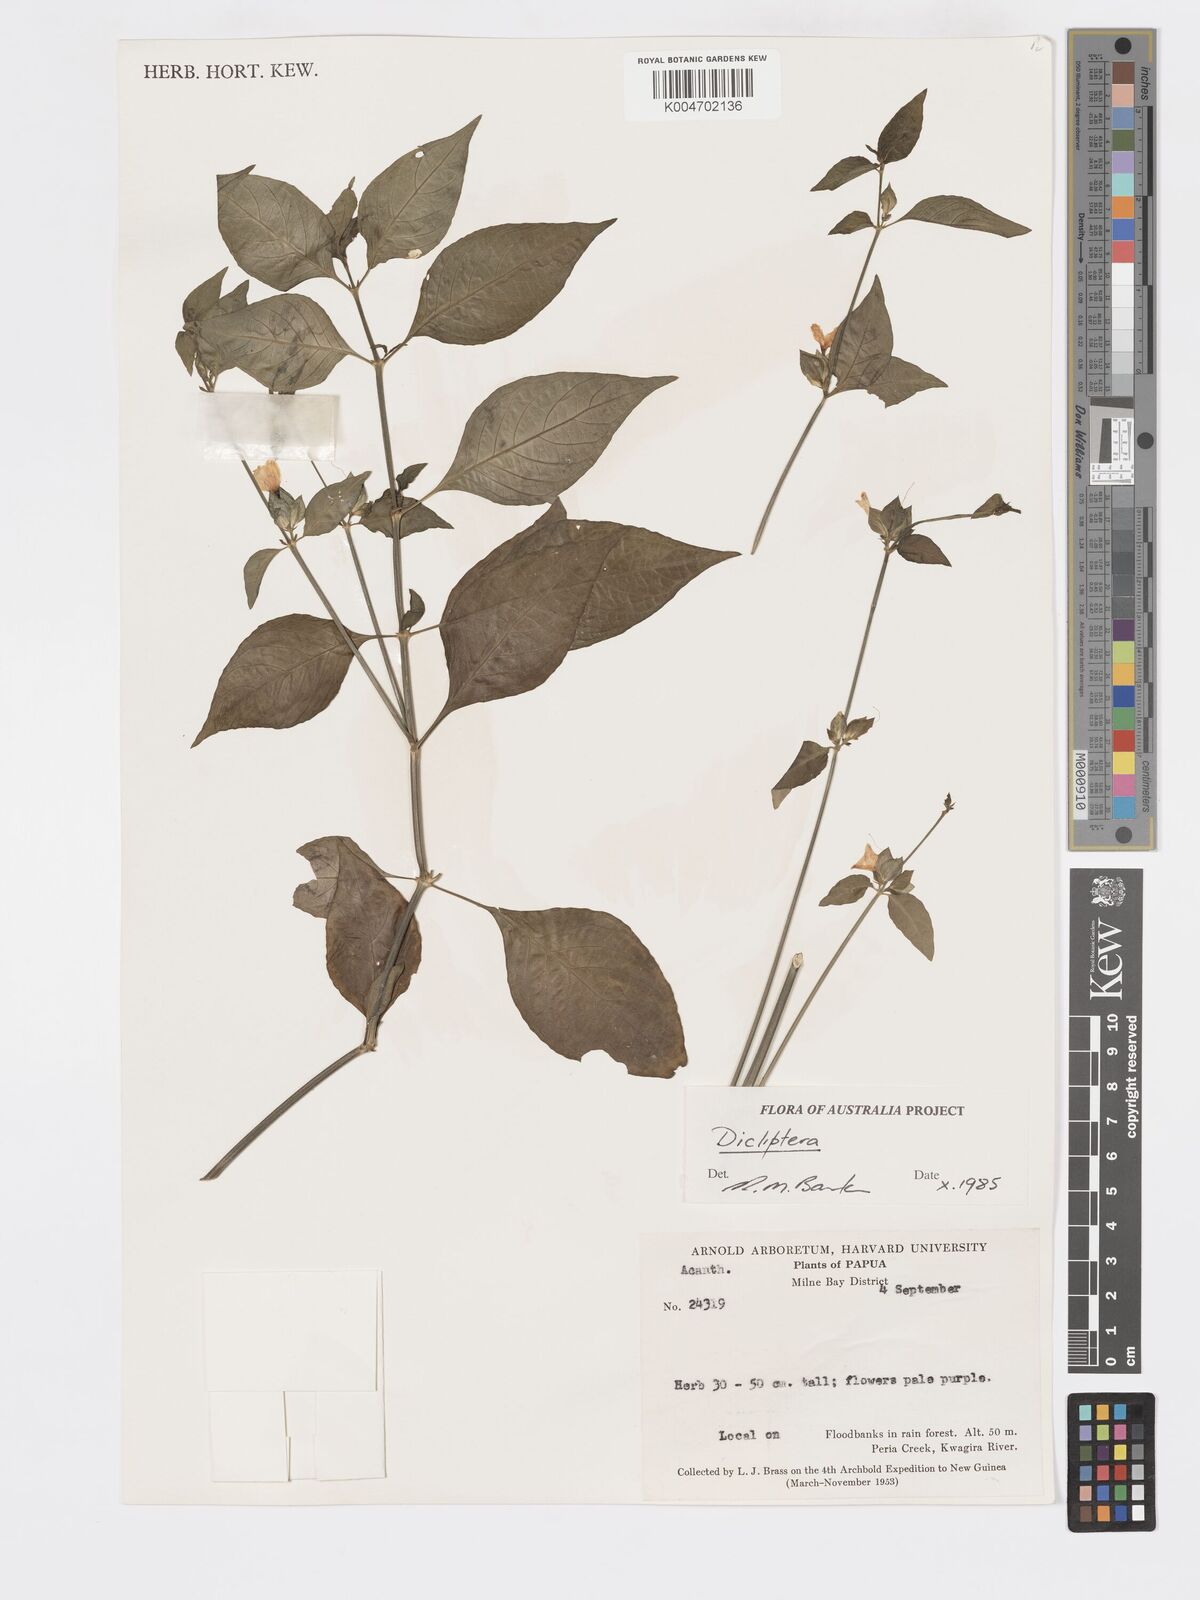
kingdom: Plantae
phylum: Tracheophyta
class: Magnoliopsida
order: Lamiales
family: Acanthaceae
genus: Dicliptera
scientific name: Dicliptera
